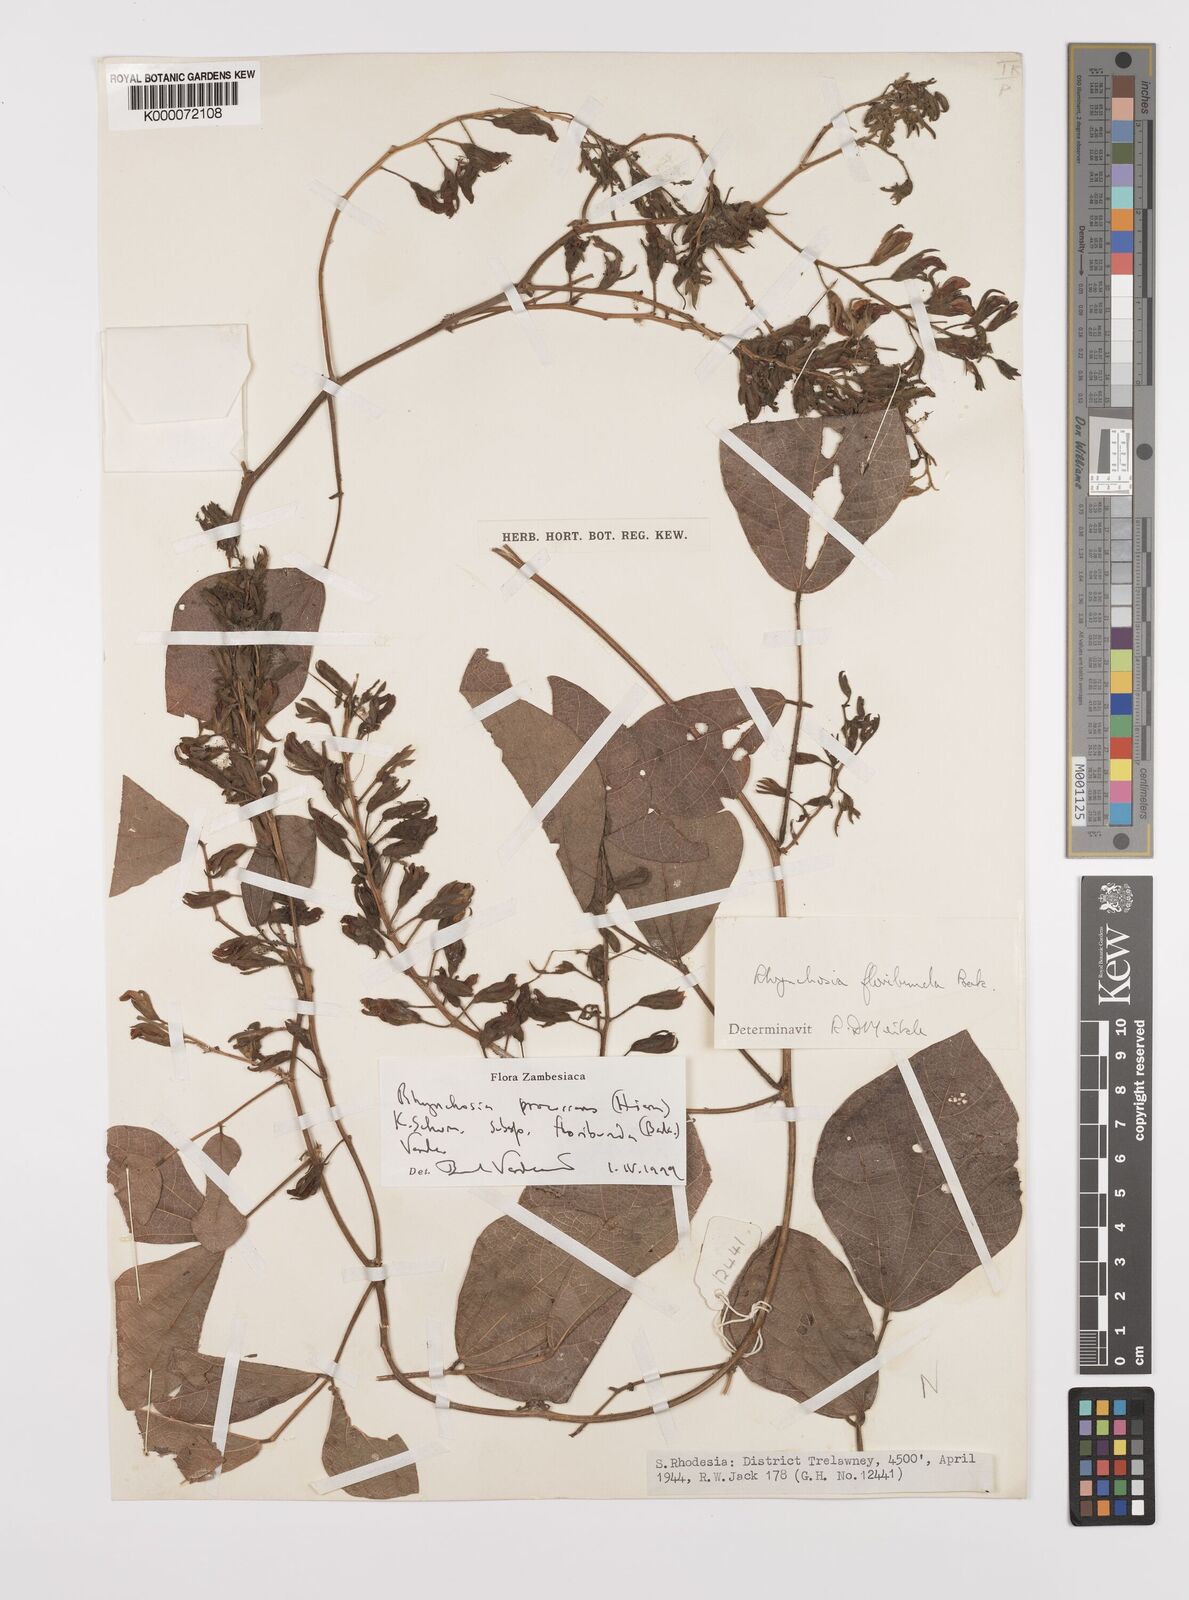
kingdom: Plantae
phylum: Tracheophyta
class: Magnoliopsida
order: Fabales
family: Fabaceae
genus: Rhynchosia
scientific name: Rhynchosia procurrens
